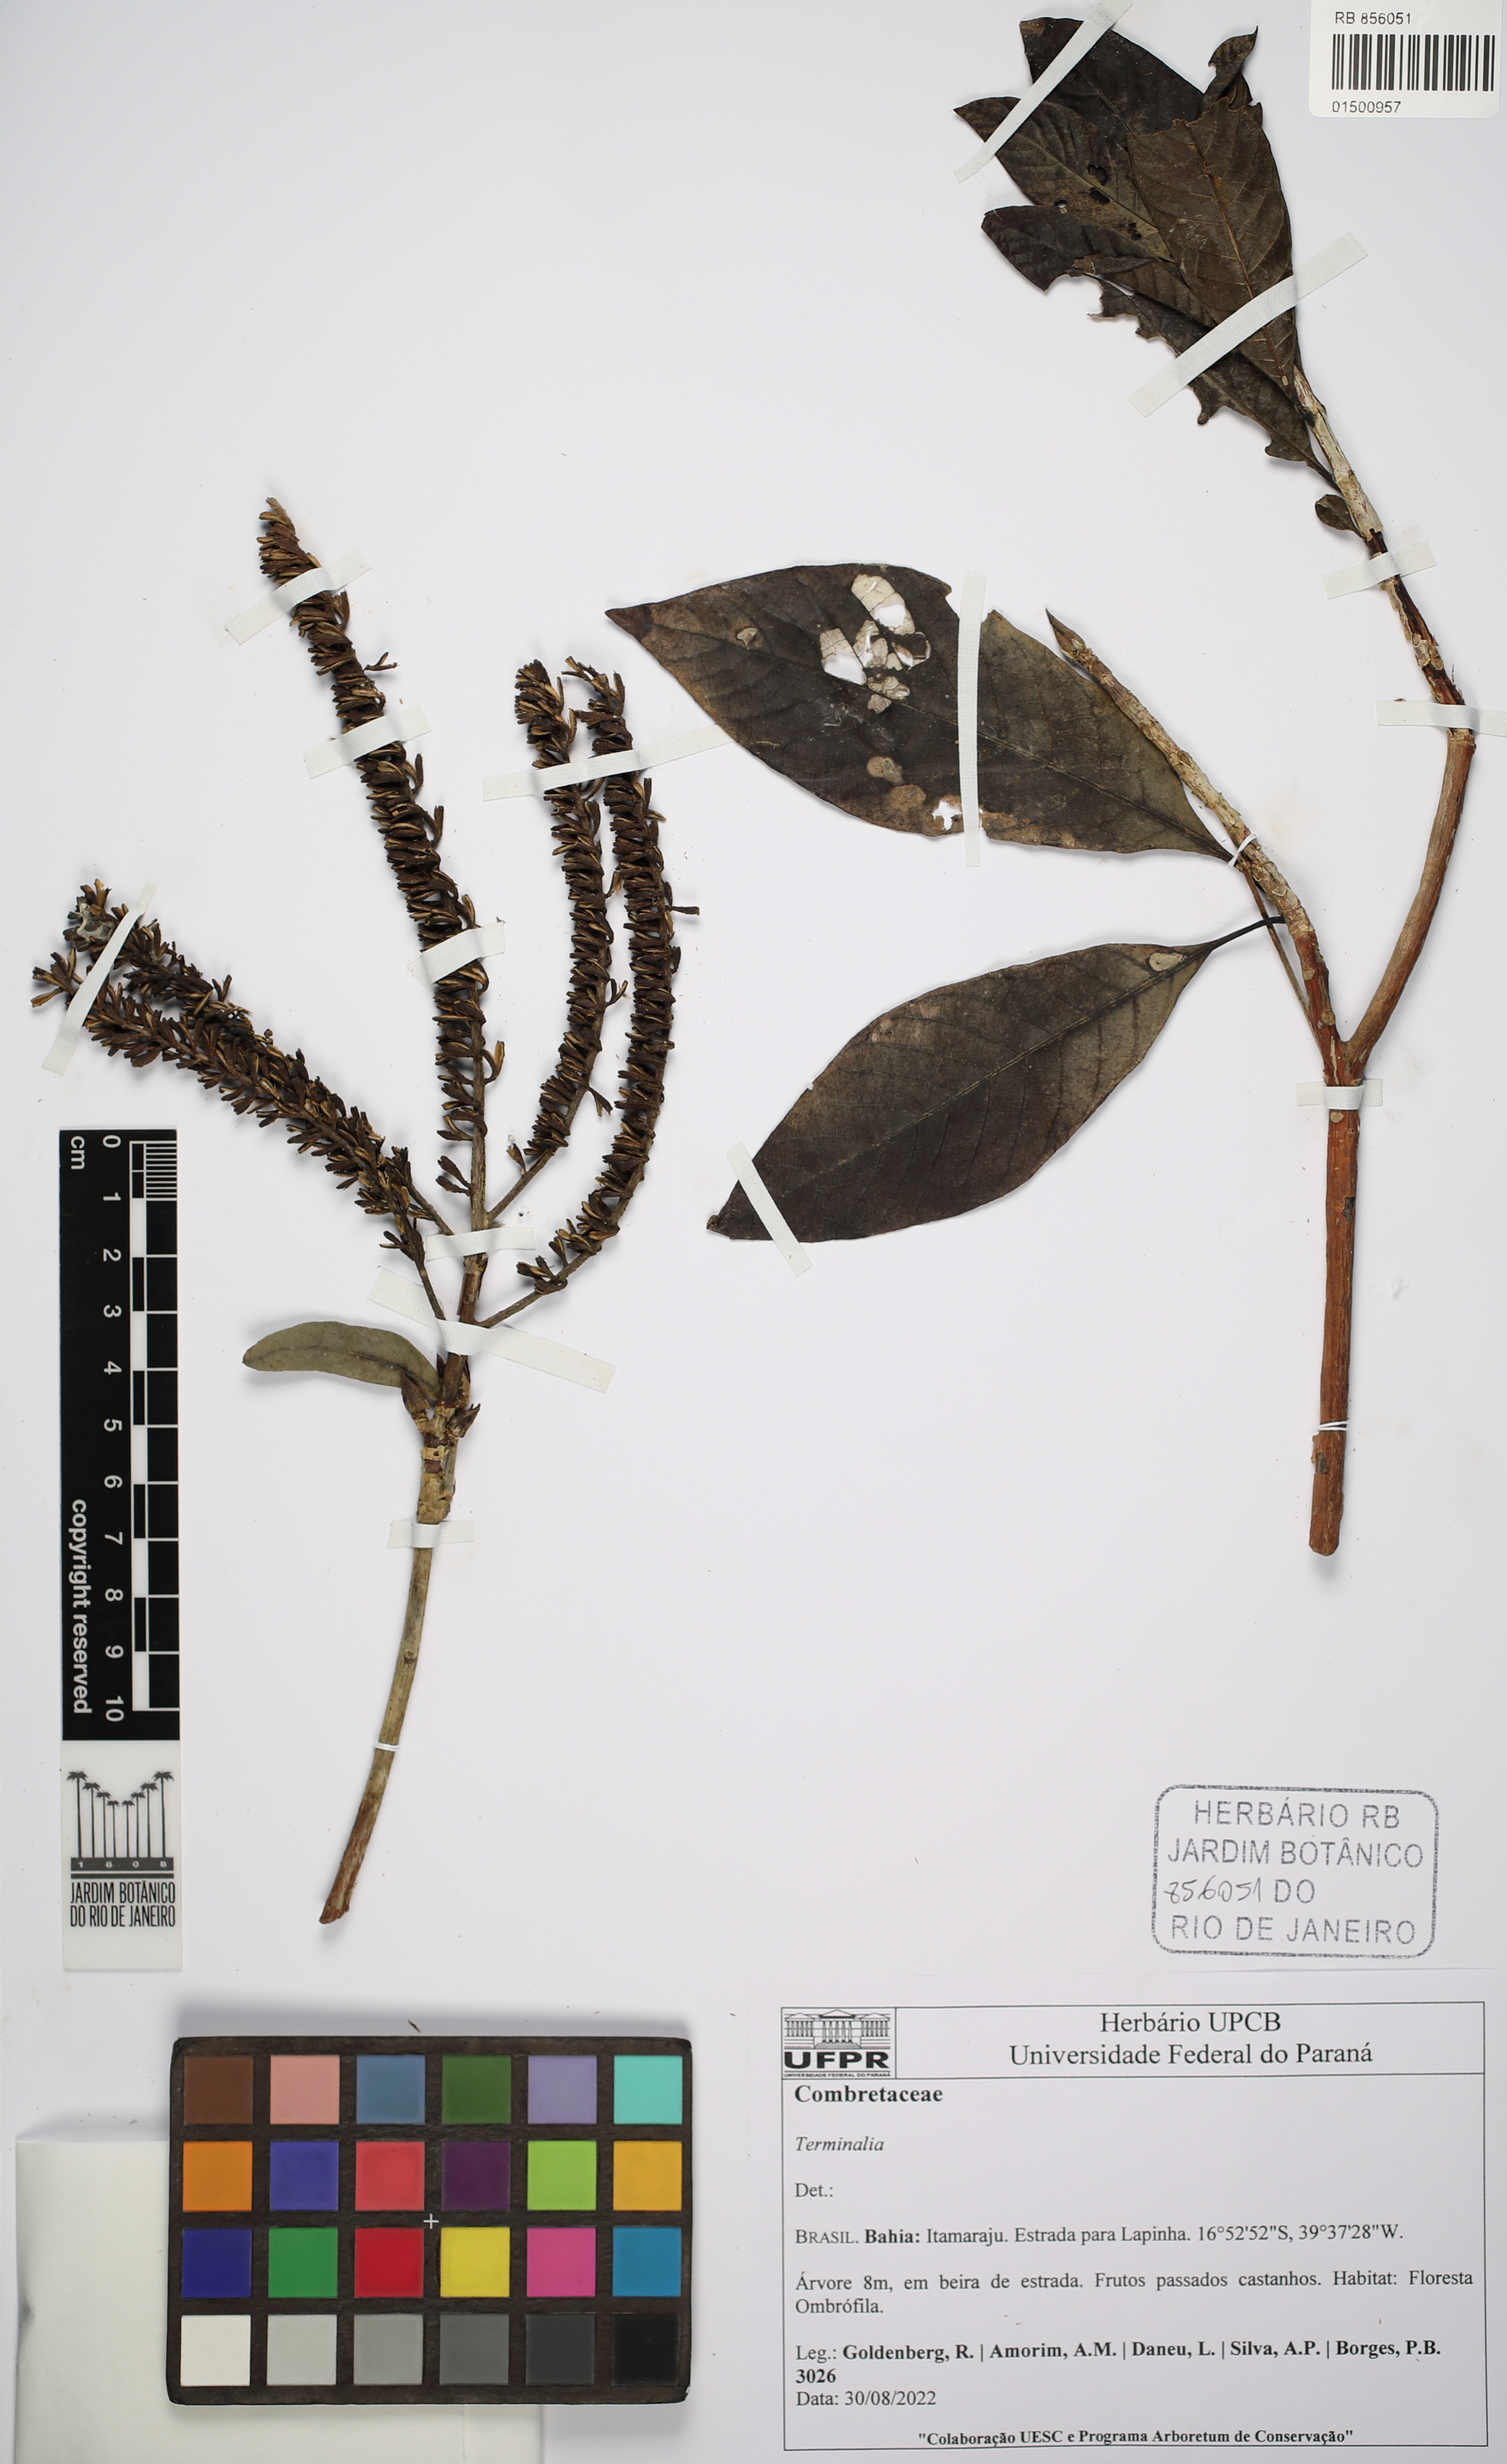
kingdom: Plantae
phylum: Tracheophyta
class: Magnoliopsida
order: Myrtales
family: Combretaceae
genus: Terminalia
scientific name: Terminalia
